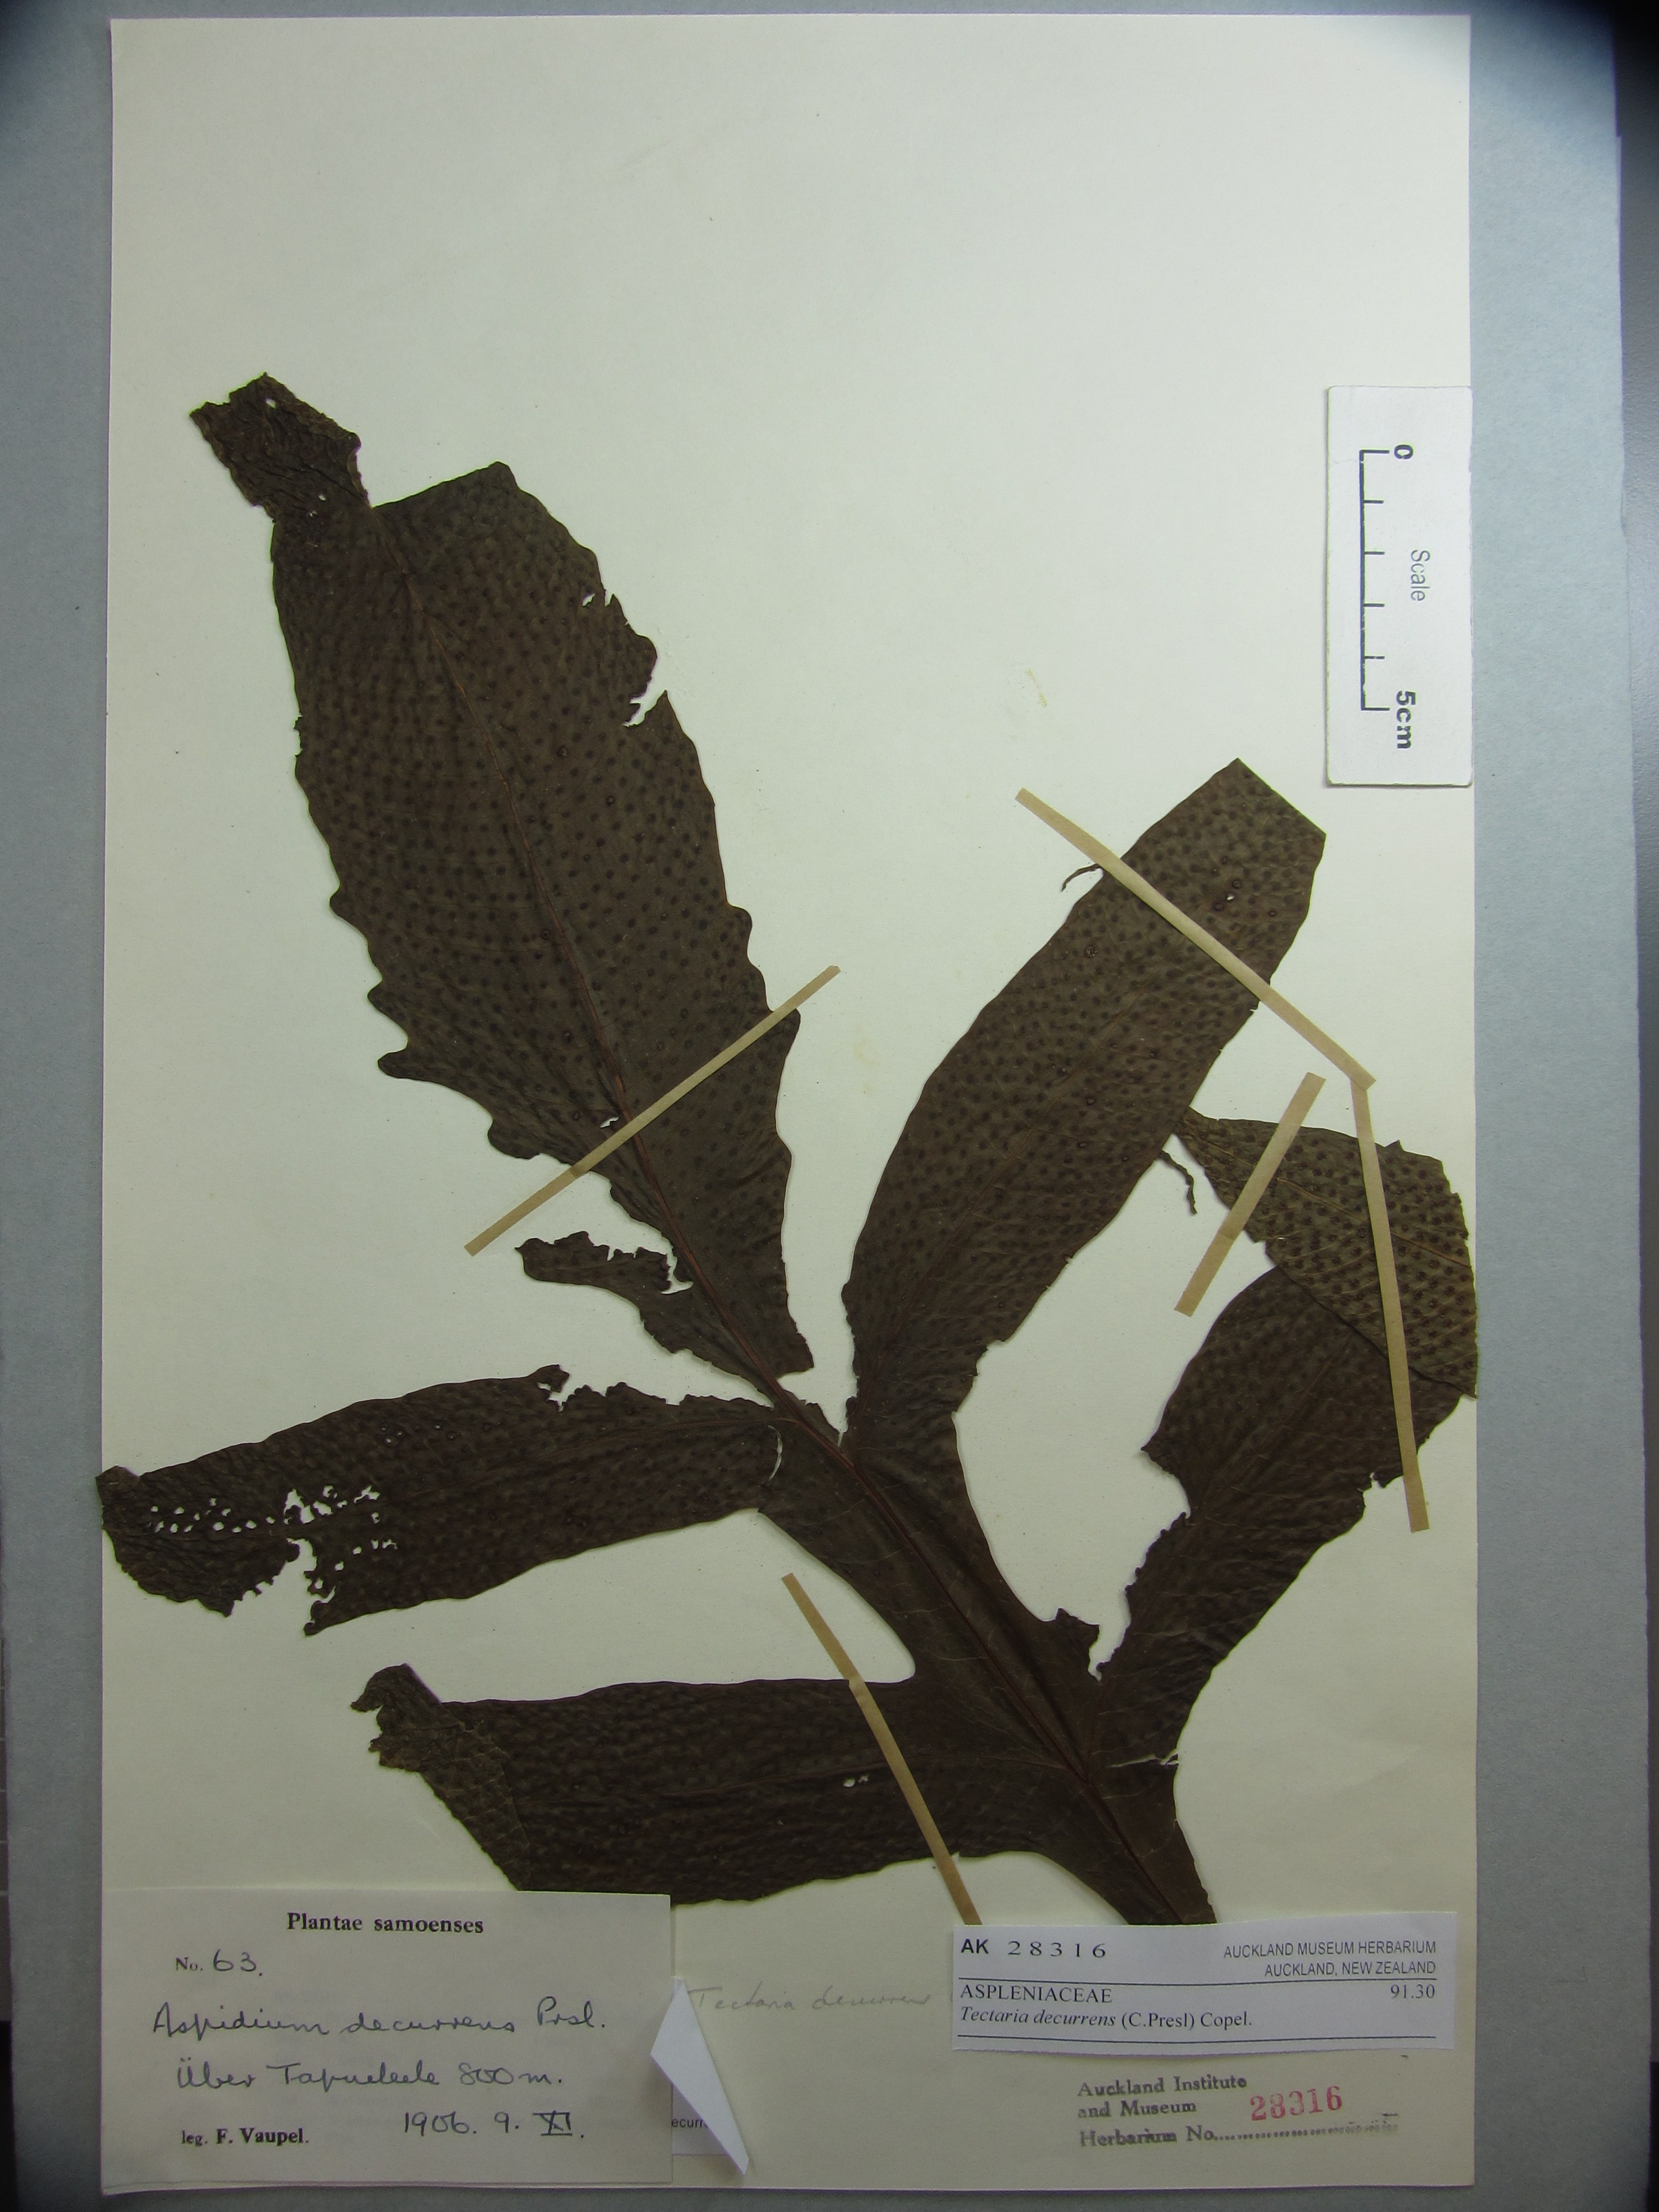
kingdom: Plantae
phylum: Tracheophyta
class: Polypodiopsida
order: Polypodiales
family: Tectariaceae
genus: Tectaria
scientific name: Tectaria decurrens
